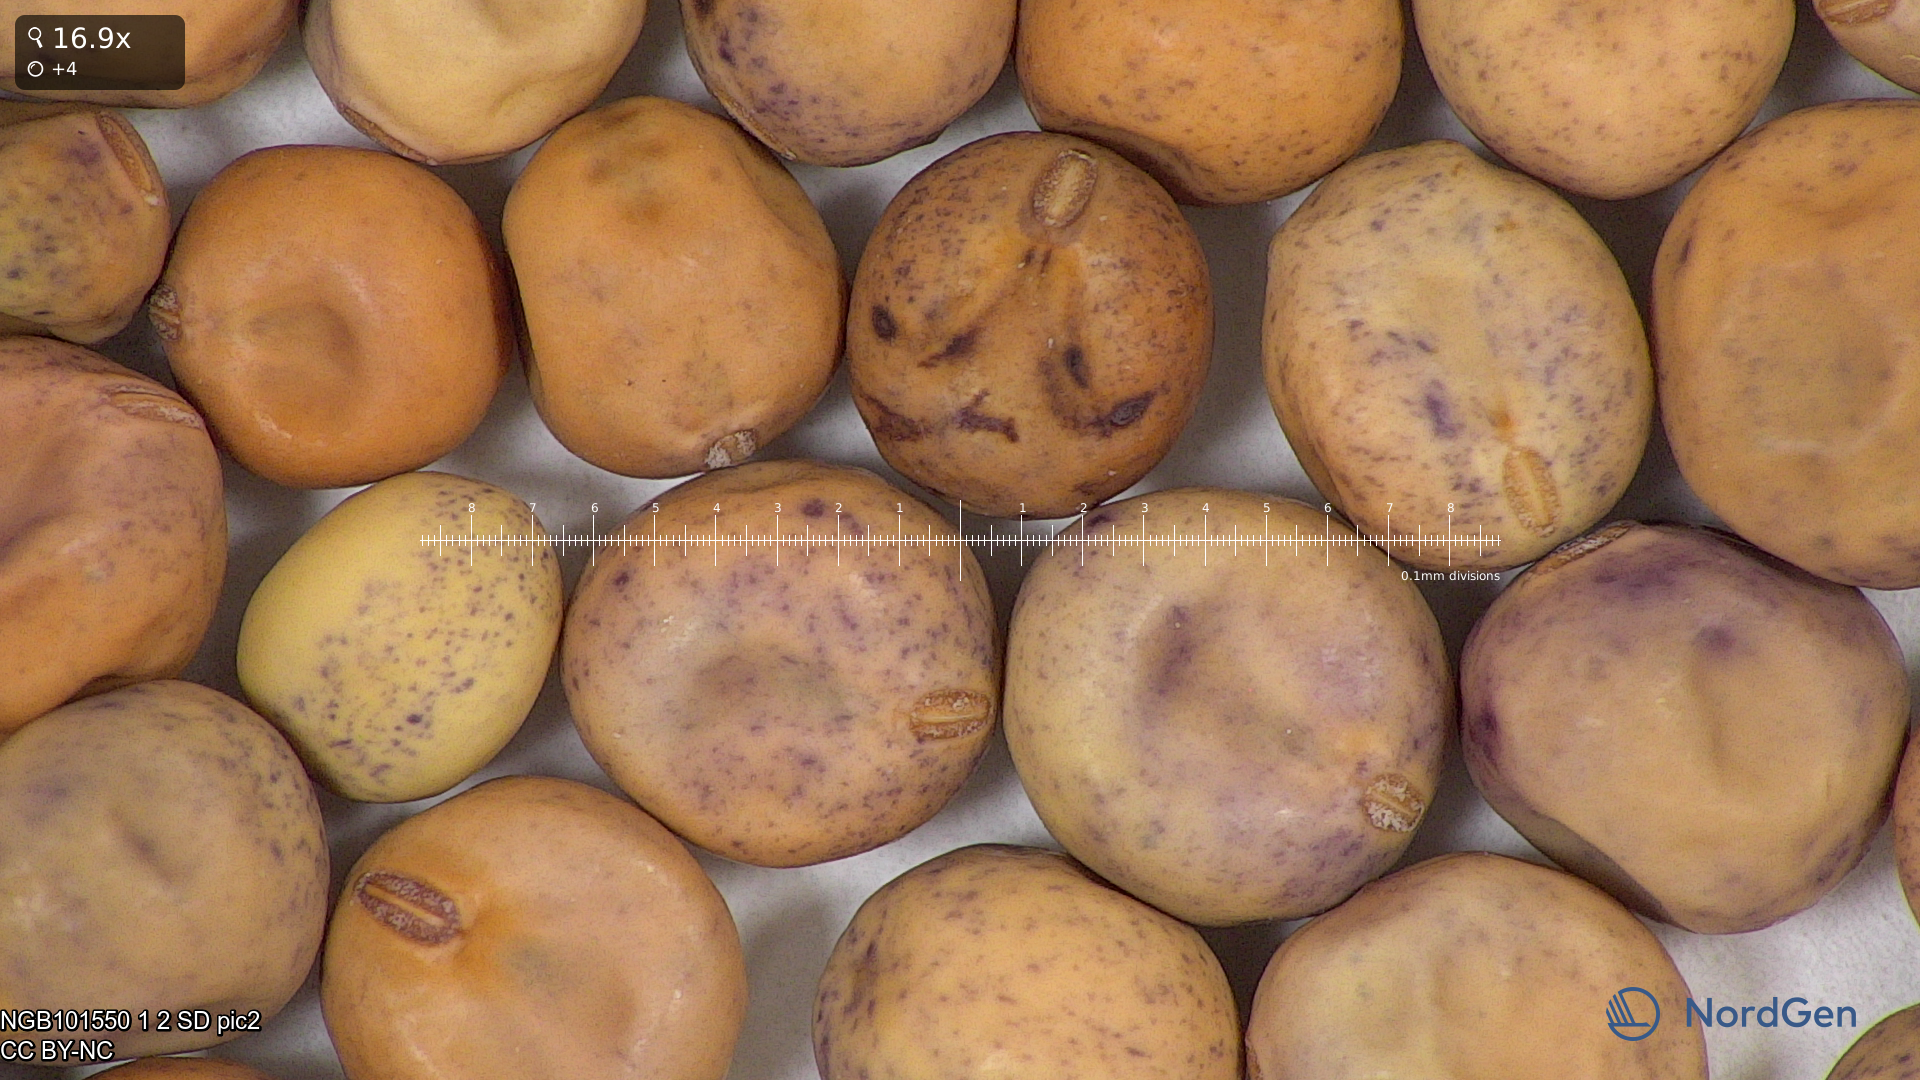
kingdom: Plantae
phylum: Tracheophyta
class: Magnoliopsida
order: Fabales
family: Fabaceae
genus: Lathyrus
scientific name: Lathyrus oleraceus
